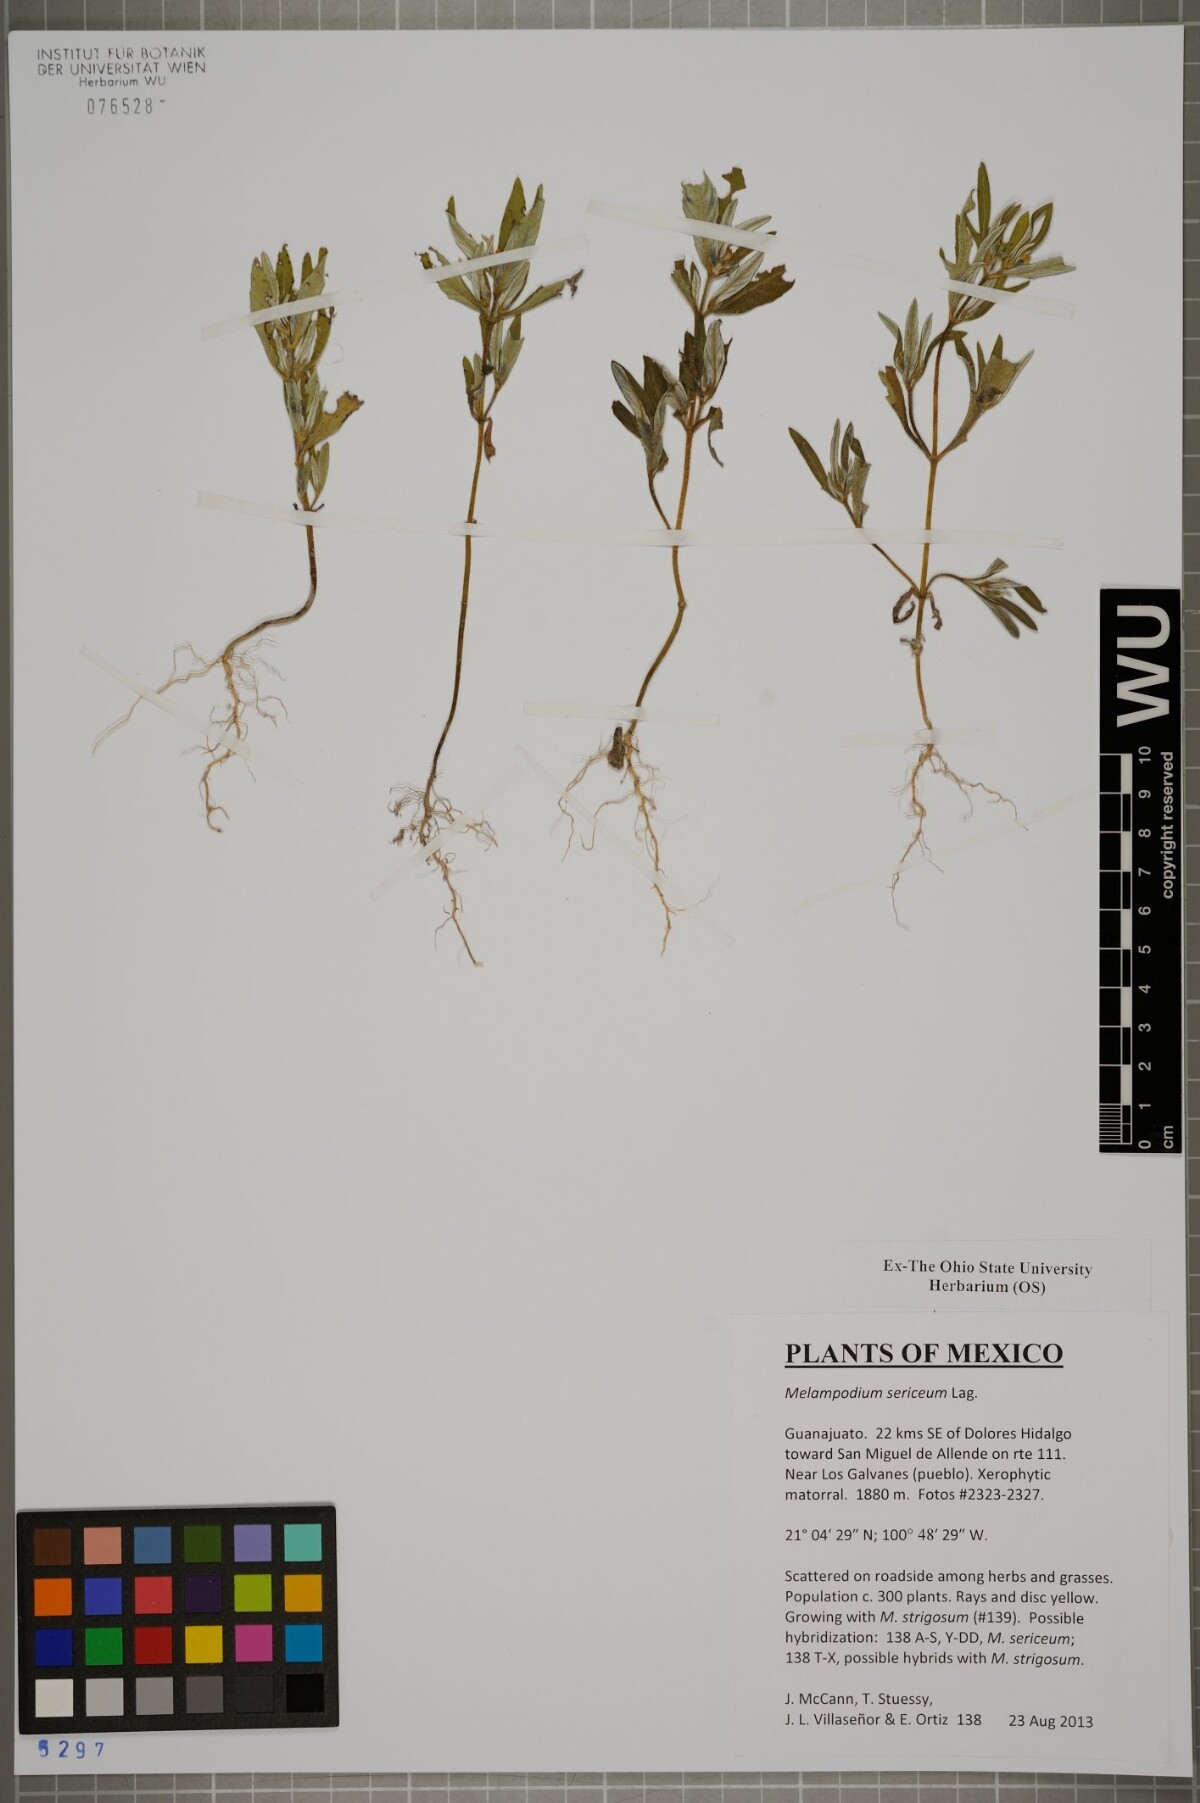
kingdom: Plantae
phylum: Tracheophyta
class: Magnoliopsida
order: Asterales
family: Asteraceae
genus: Melampodium
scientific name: Melampodium sericeum
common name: Rough blackfoot
